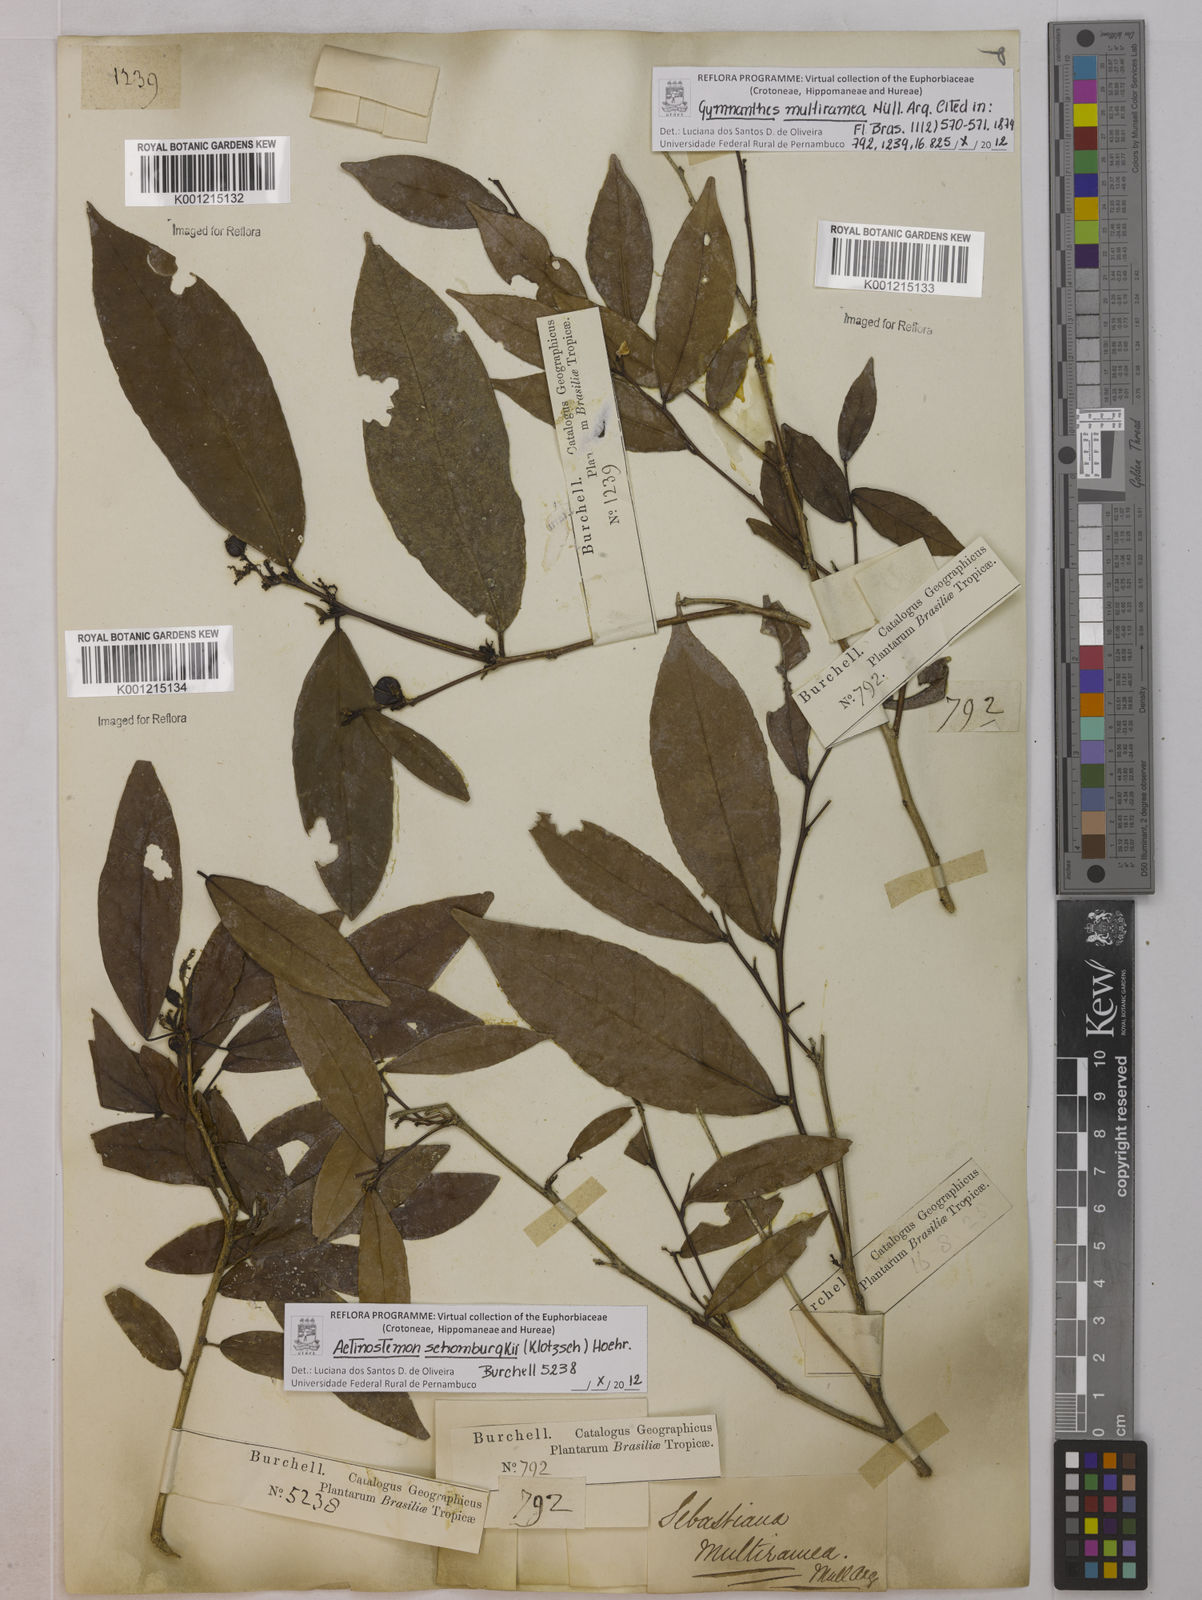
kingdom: Plantae
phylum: Tracheophyta
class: Magnoliopsida
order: Malpighiales
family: Euphorbiaceae
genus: Gymnanthes
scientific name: Gymnanthes
